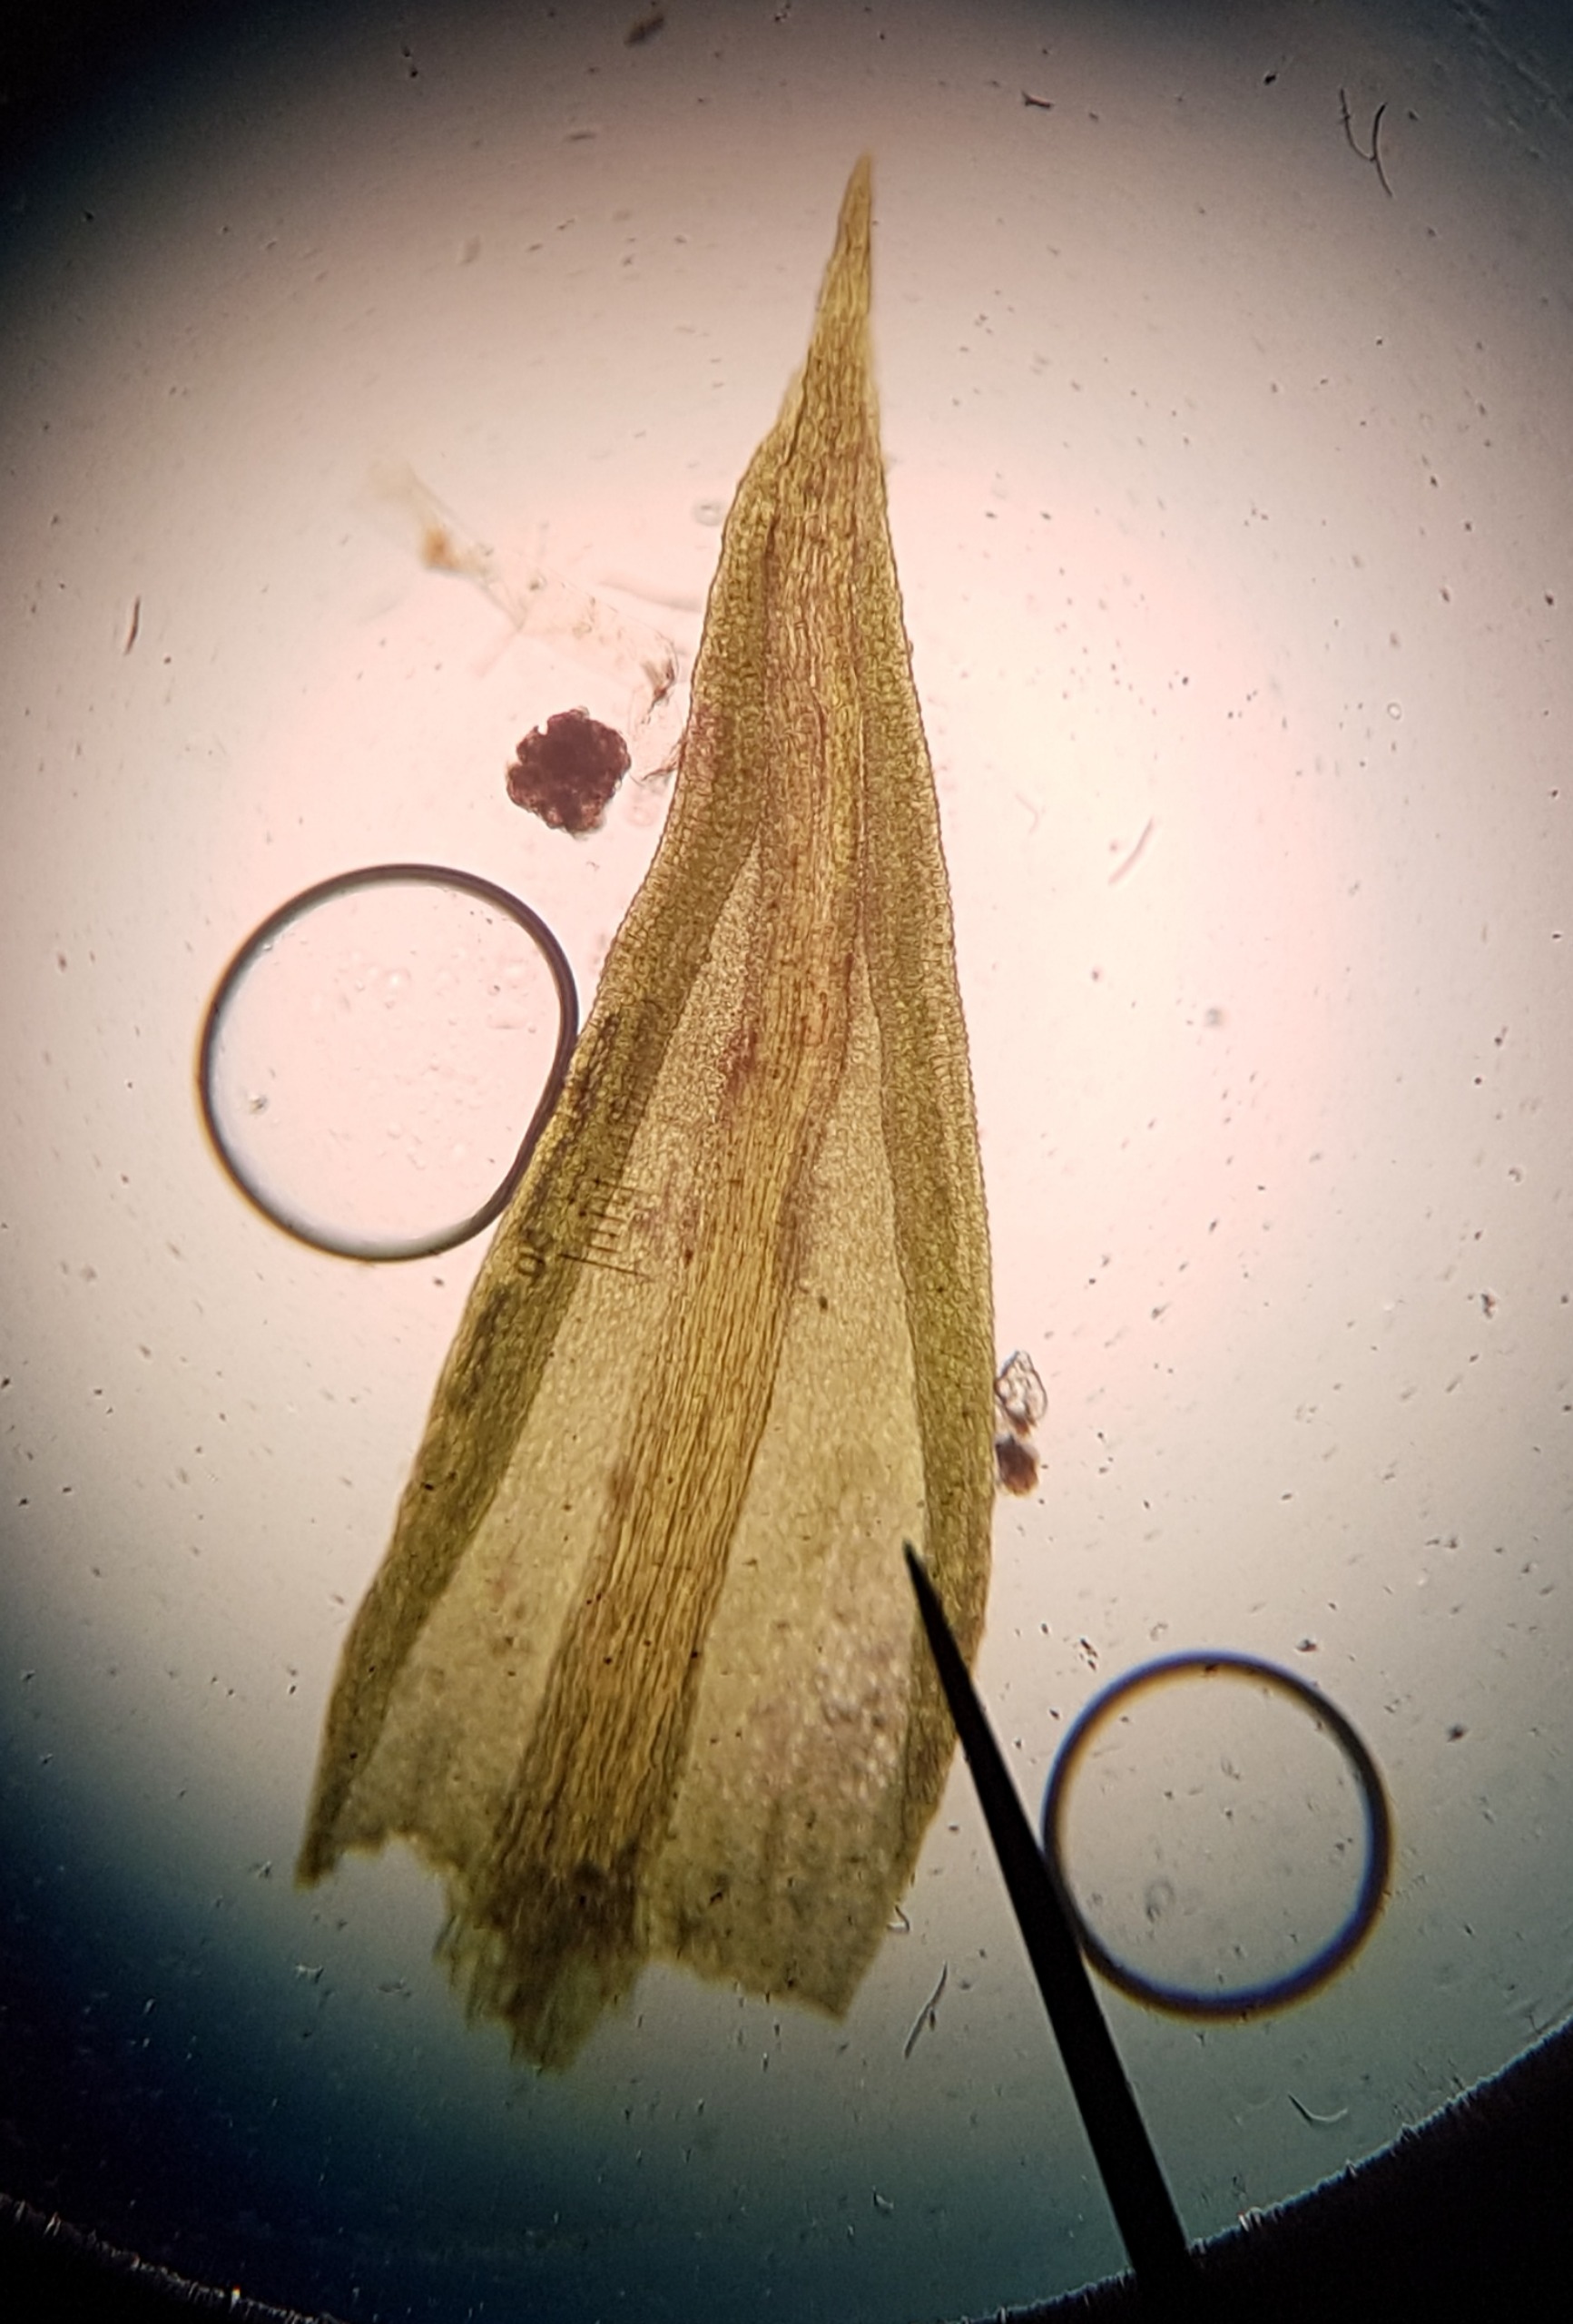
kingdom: Plantae
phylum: Bryophyta
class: Bryopsida
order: Pottiales
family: Pottiaceae
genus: Pseudocrossidium
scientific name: Pseudocrossidium hornschuchianum
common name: Spids rullerand
